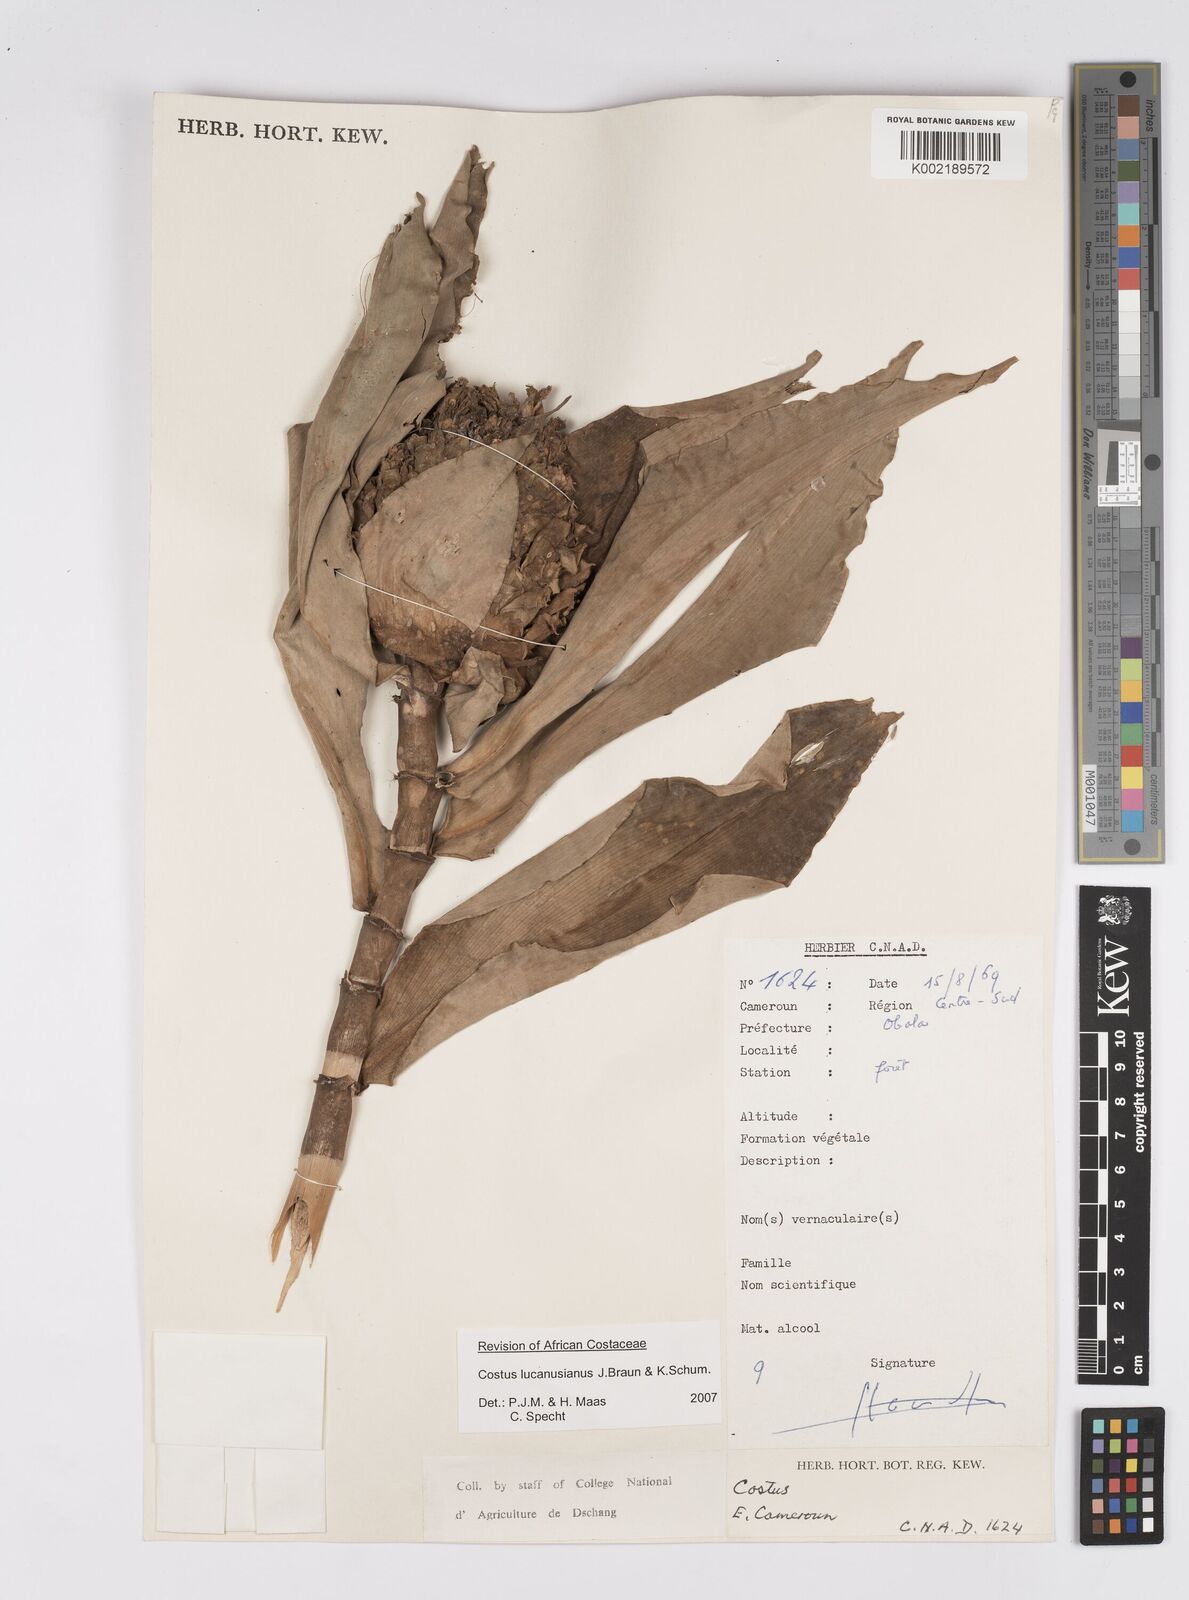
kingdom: Plantae
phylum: Tracheophyta
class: Liliopsida
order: Zingiberales
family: Costaceae
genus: Costus
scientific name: Costus lucanusianus
